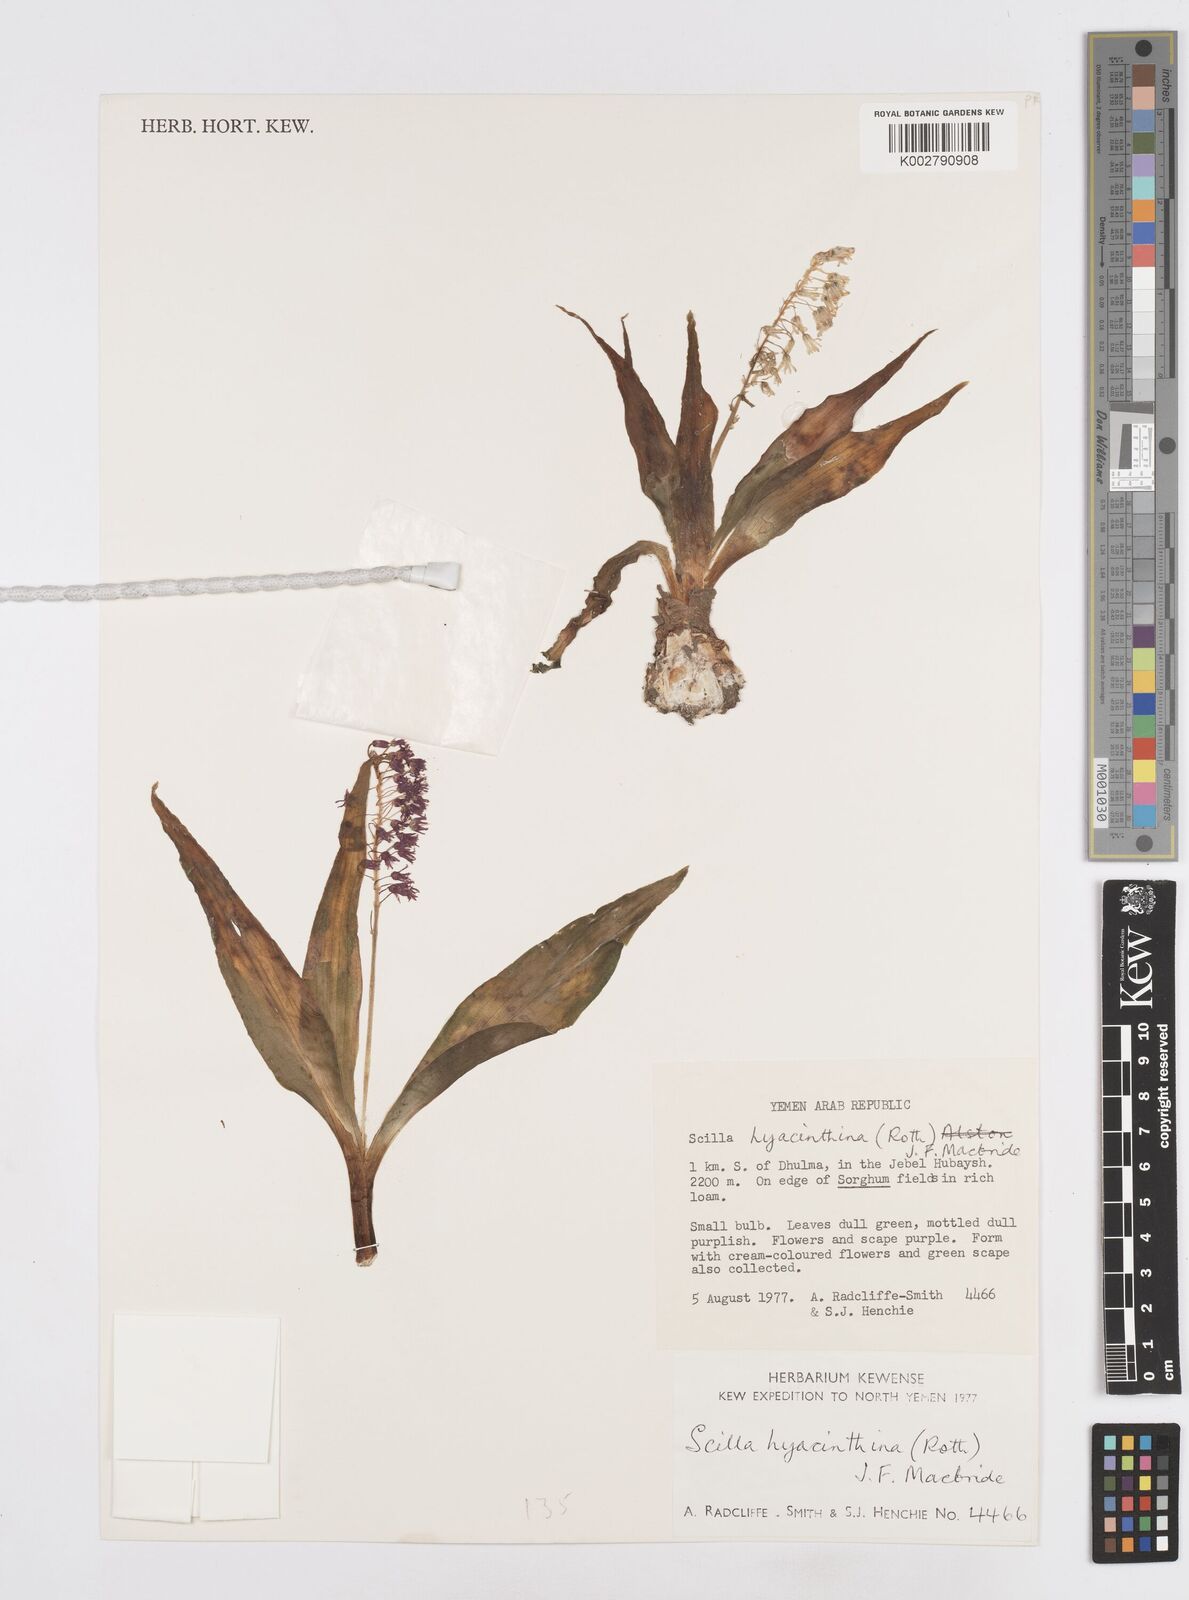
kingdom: Plantae
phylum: Tracheophyta
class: Liliopsida
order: Asparagales
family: Asparagaceae
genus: Ledebouria
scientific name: Ledebouria revoluta
